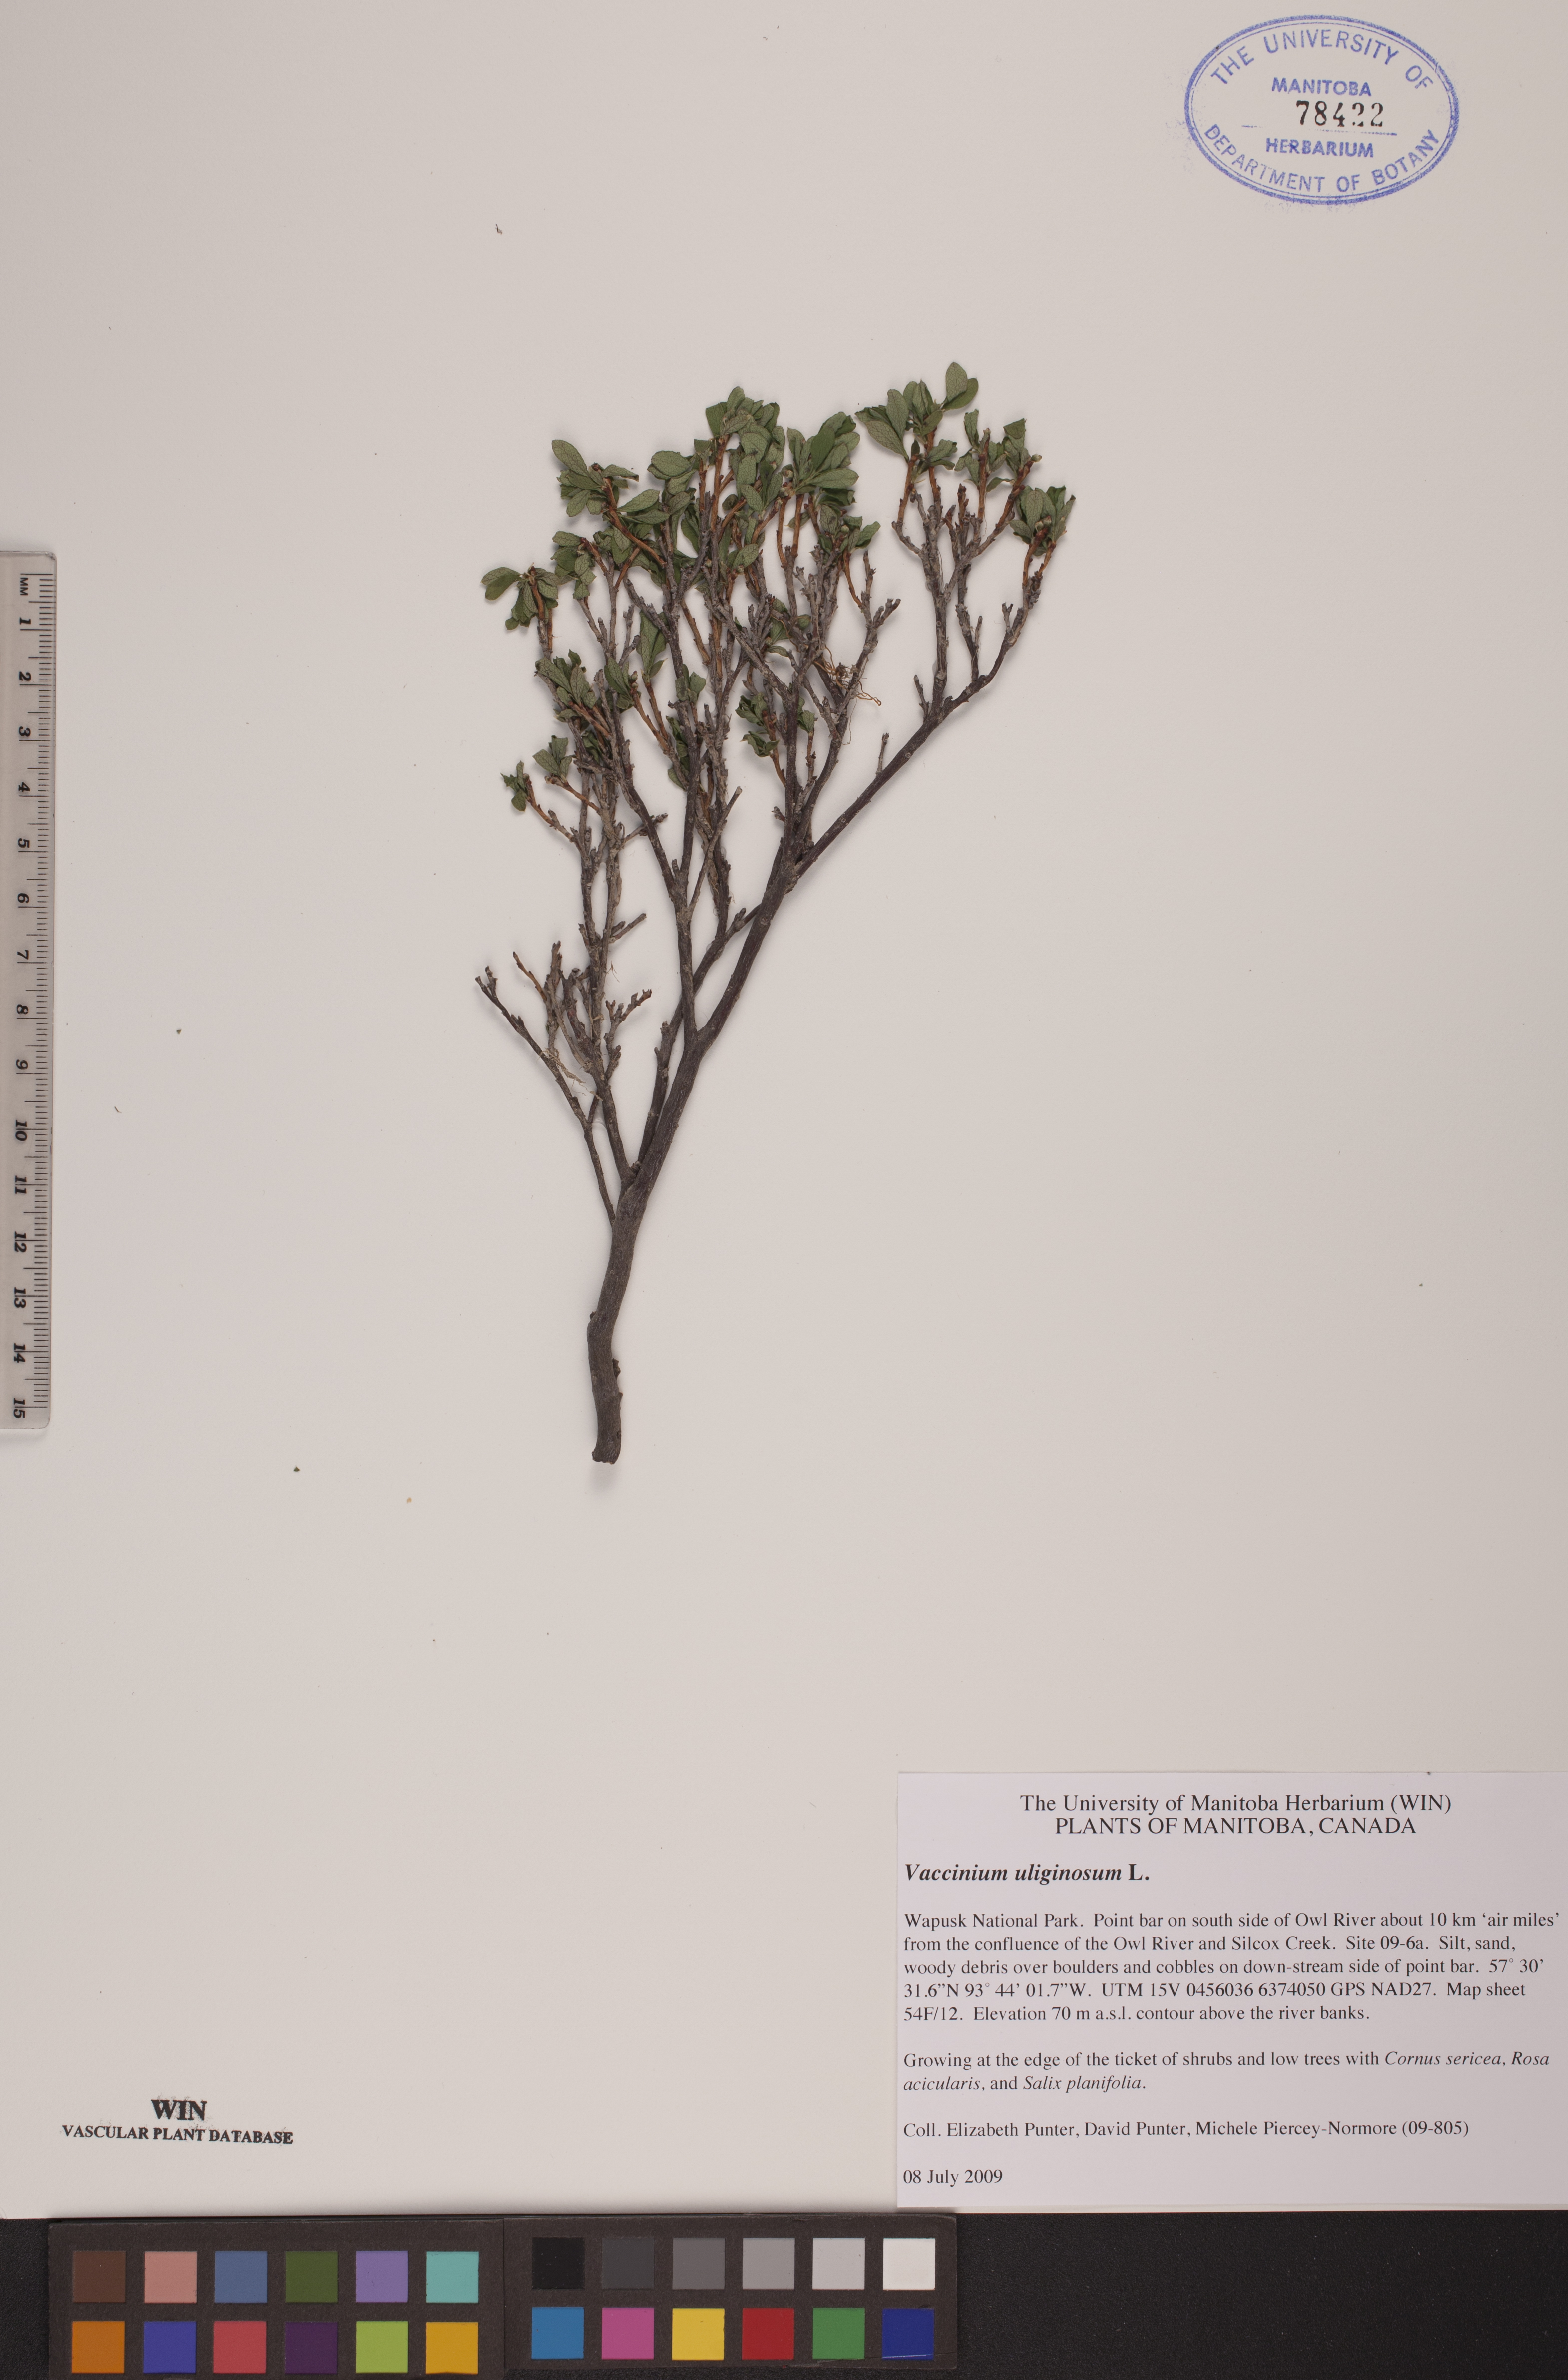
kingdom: Plantae
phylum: Tracheophyta
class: Magnoliopsida
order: Ericales
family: Ericaceae
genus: Vaccinium
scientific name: Vaccinium uliginosum
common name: Bog bilberry
